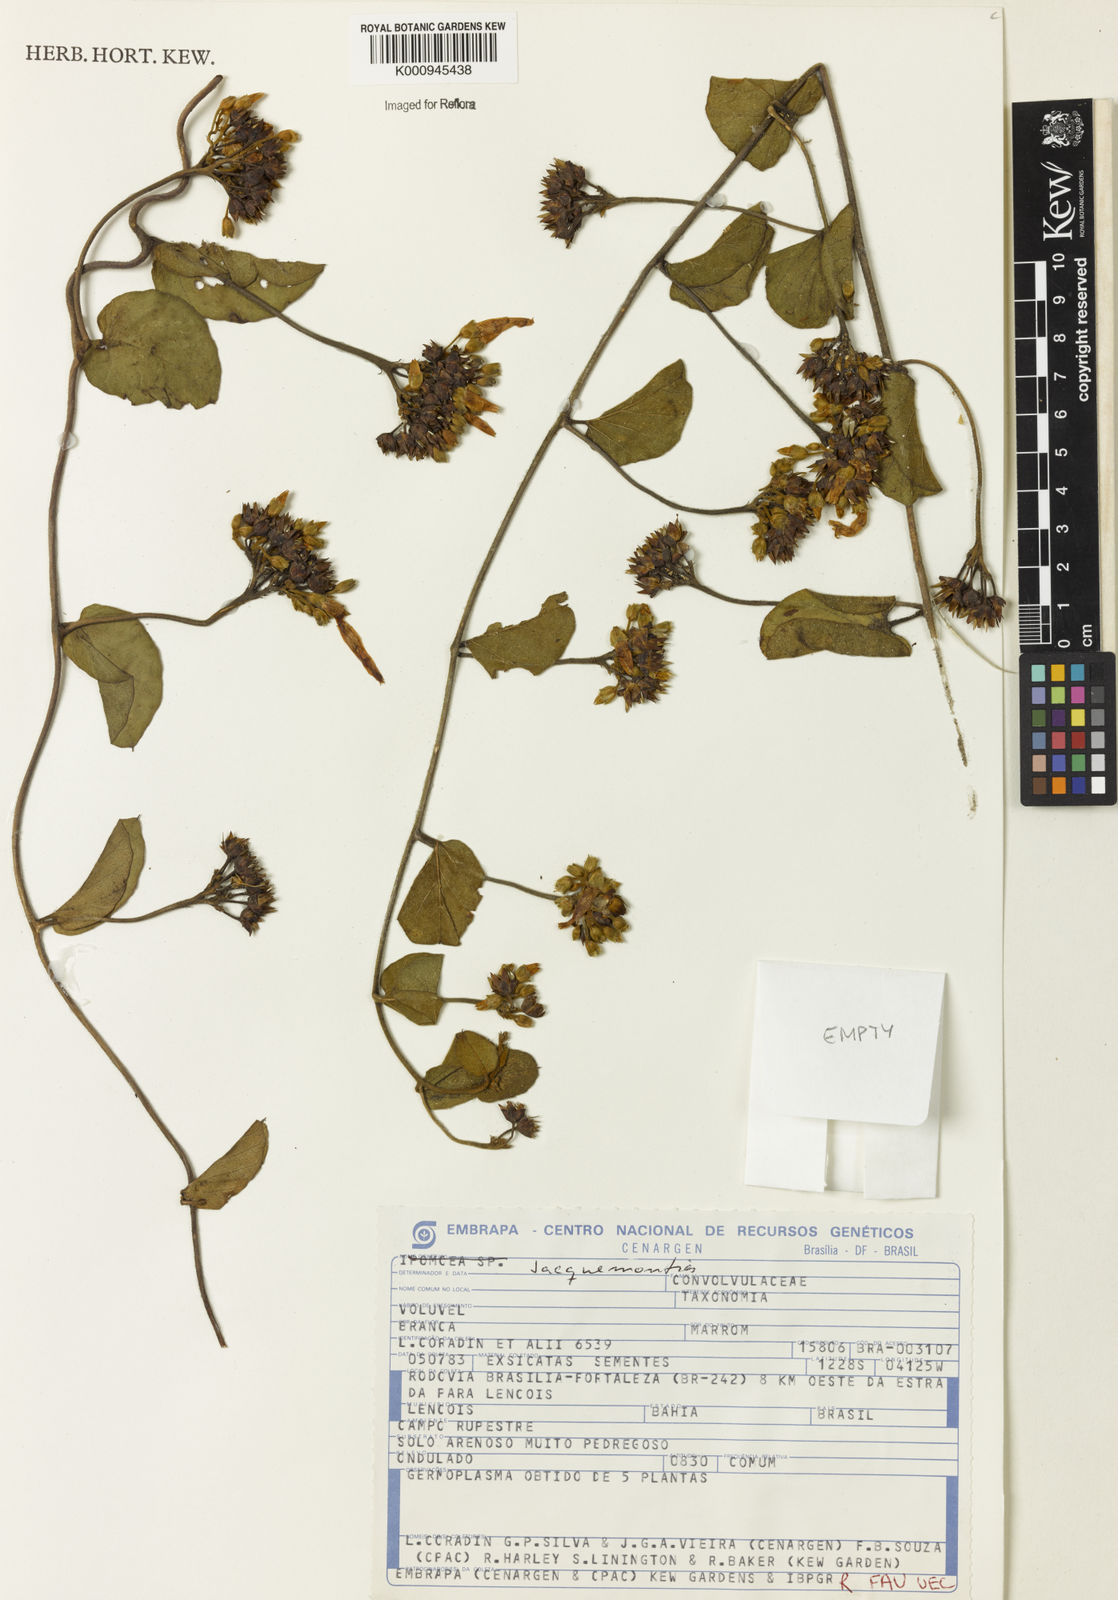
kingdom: Plantae
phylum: Tracheophyta
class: Magnoliopsida
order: Solanales
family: Convolvulaceae
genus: Jacquemontia
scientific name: Jacquemontia
